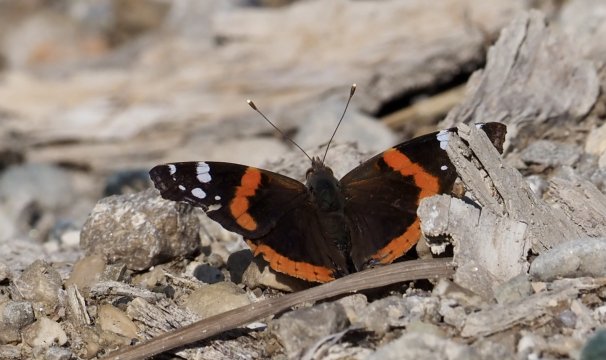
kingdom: Animalia
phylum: Arthropoda
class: Insecta
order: Lepidoptera
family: Nymphalidae
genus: Vanessa
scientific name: Vanessa atalanta
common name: Red Admiral
